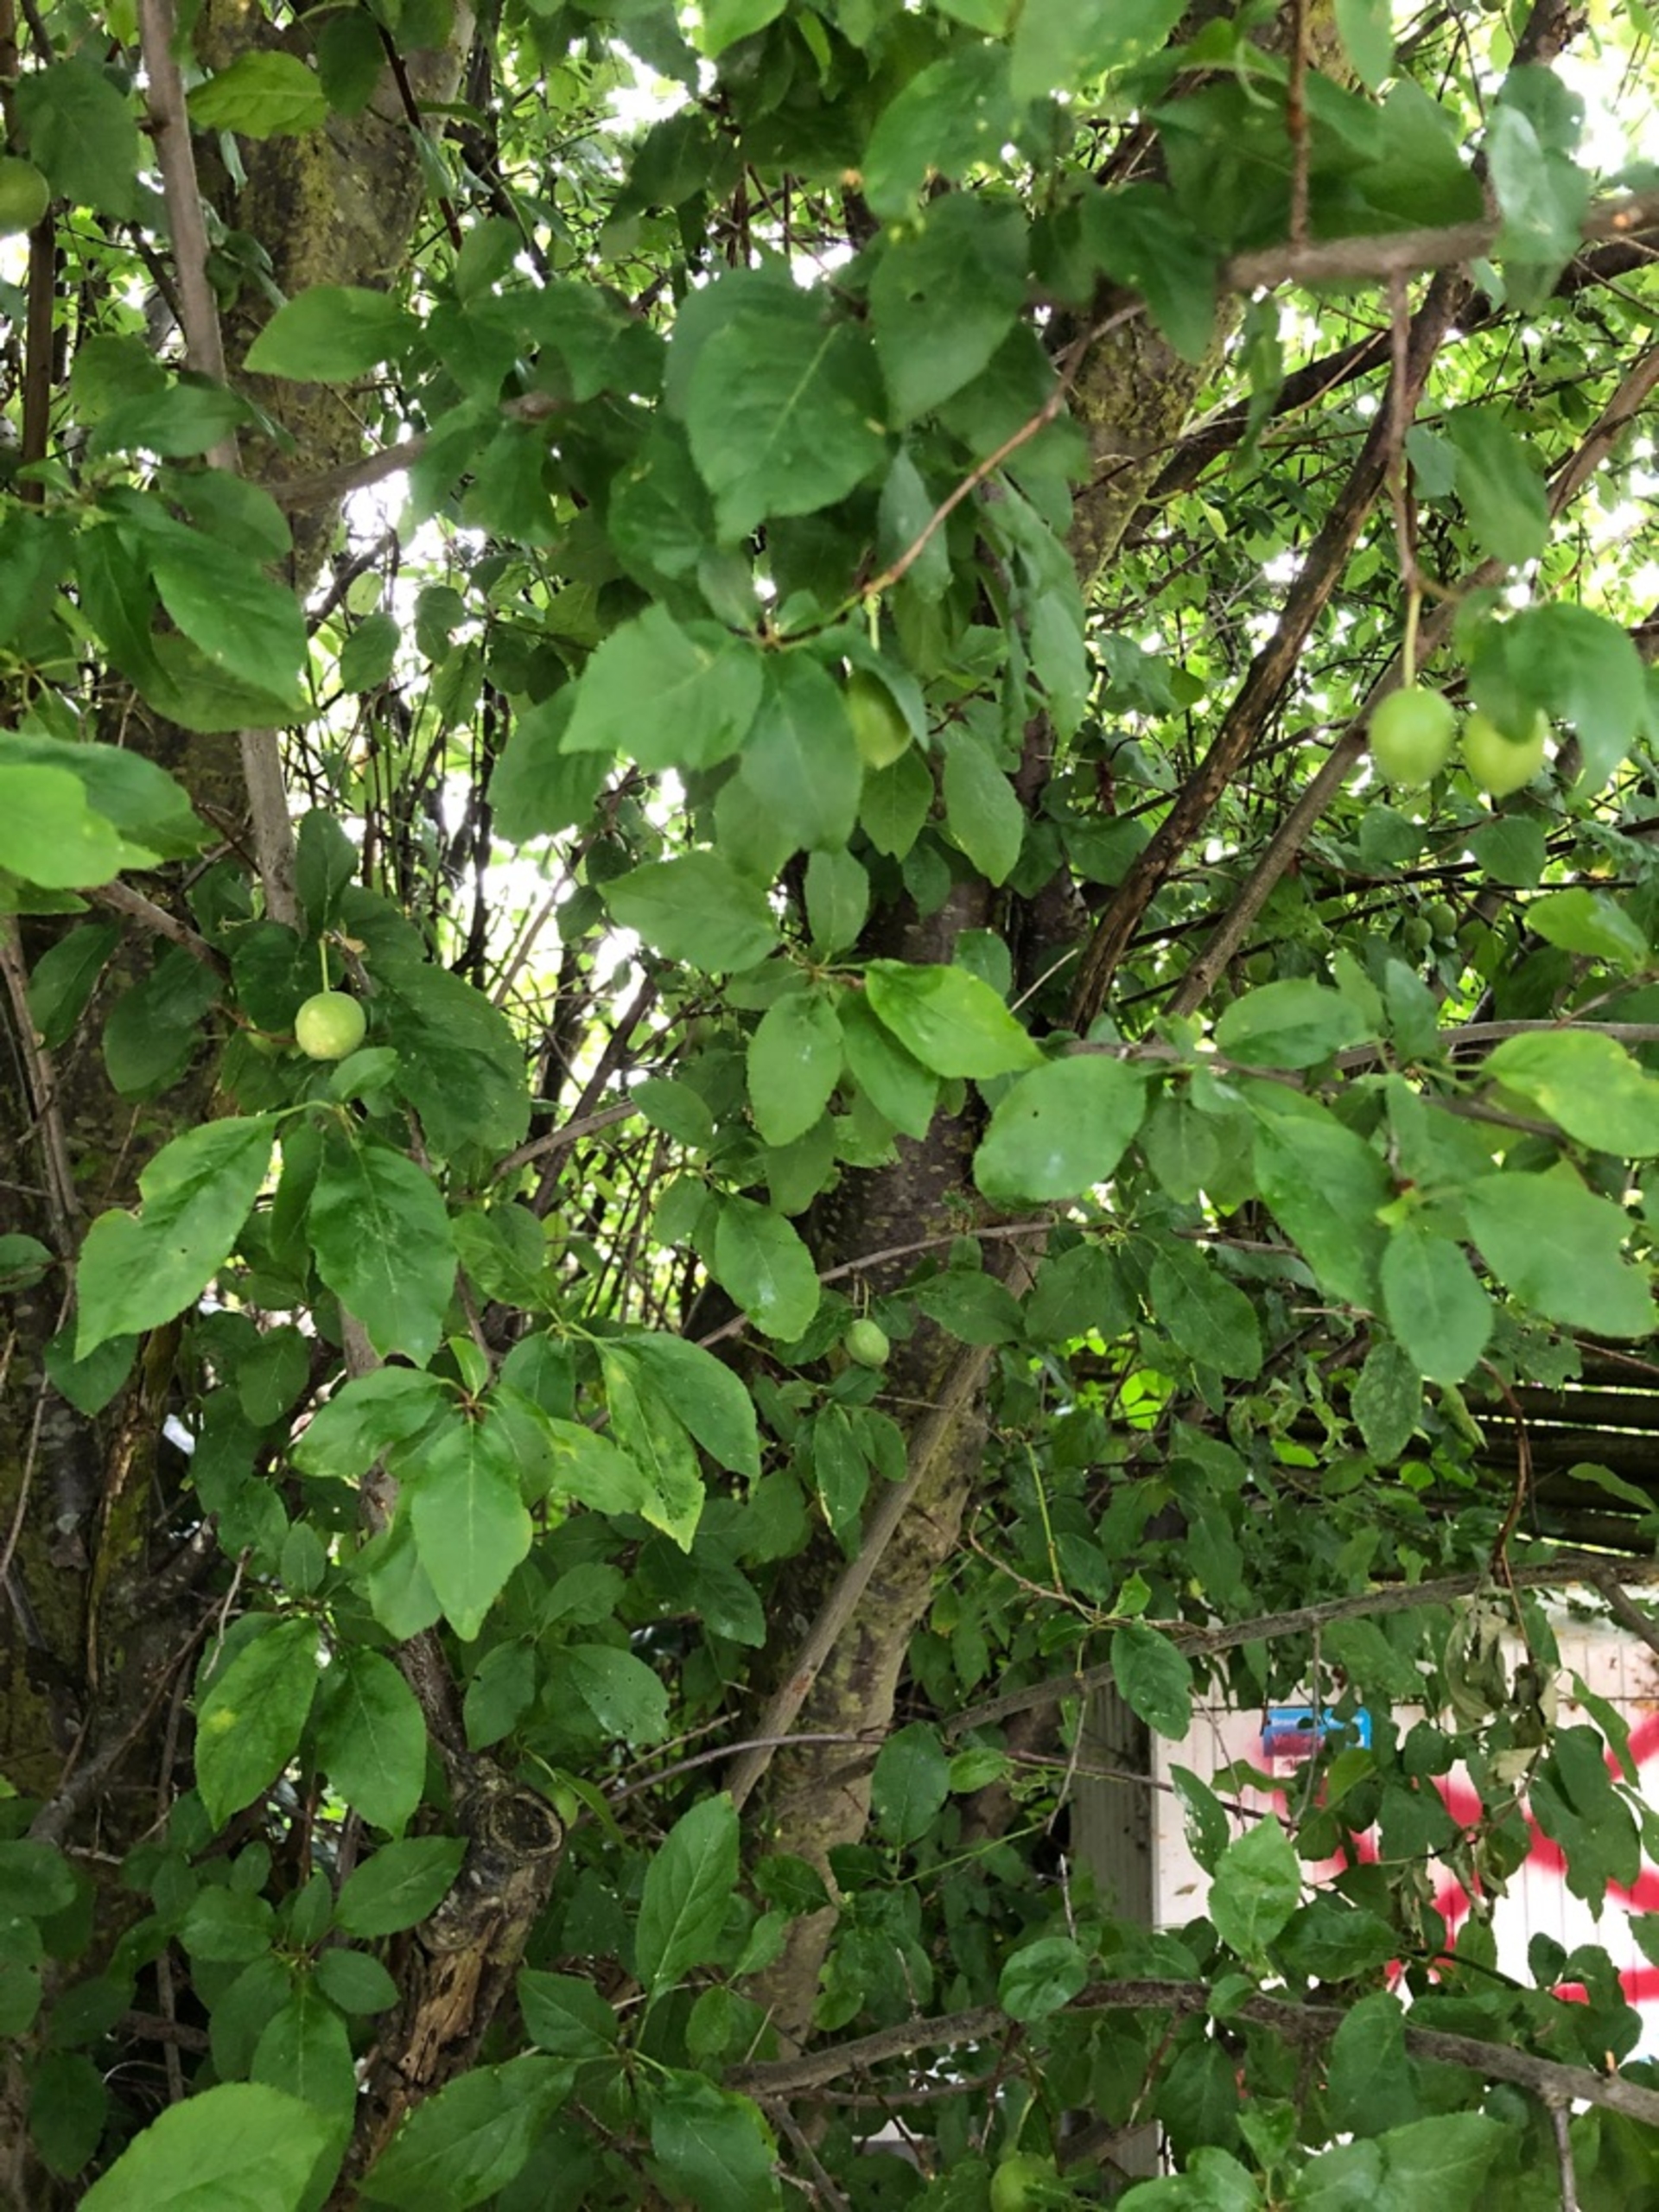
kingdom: Plantae
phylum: Tracheophyta
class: Magnoliopsida
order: Rosales
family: Rosaceae
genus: Prunus
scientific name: Prunus cerasifera
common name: Mirabel
